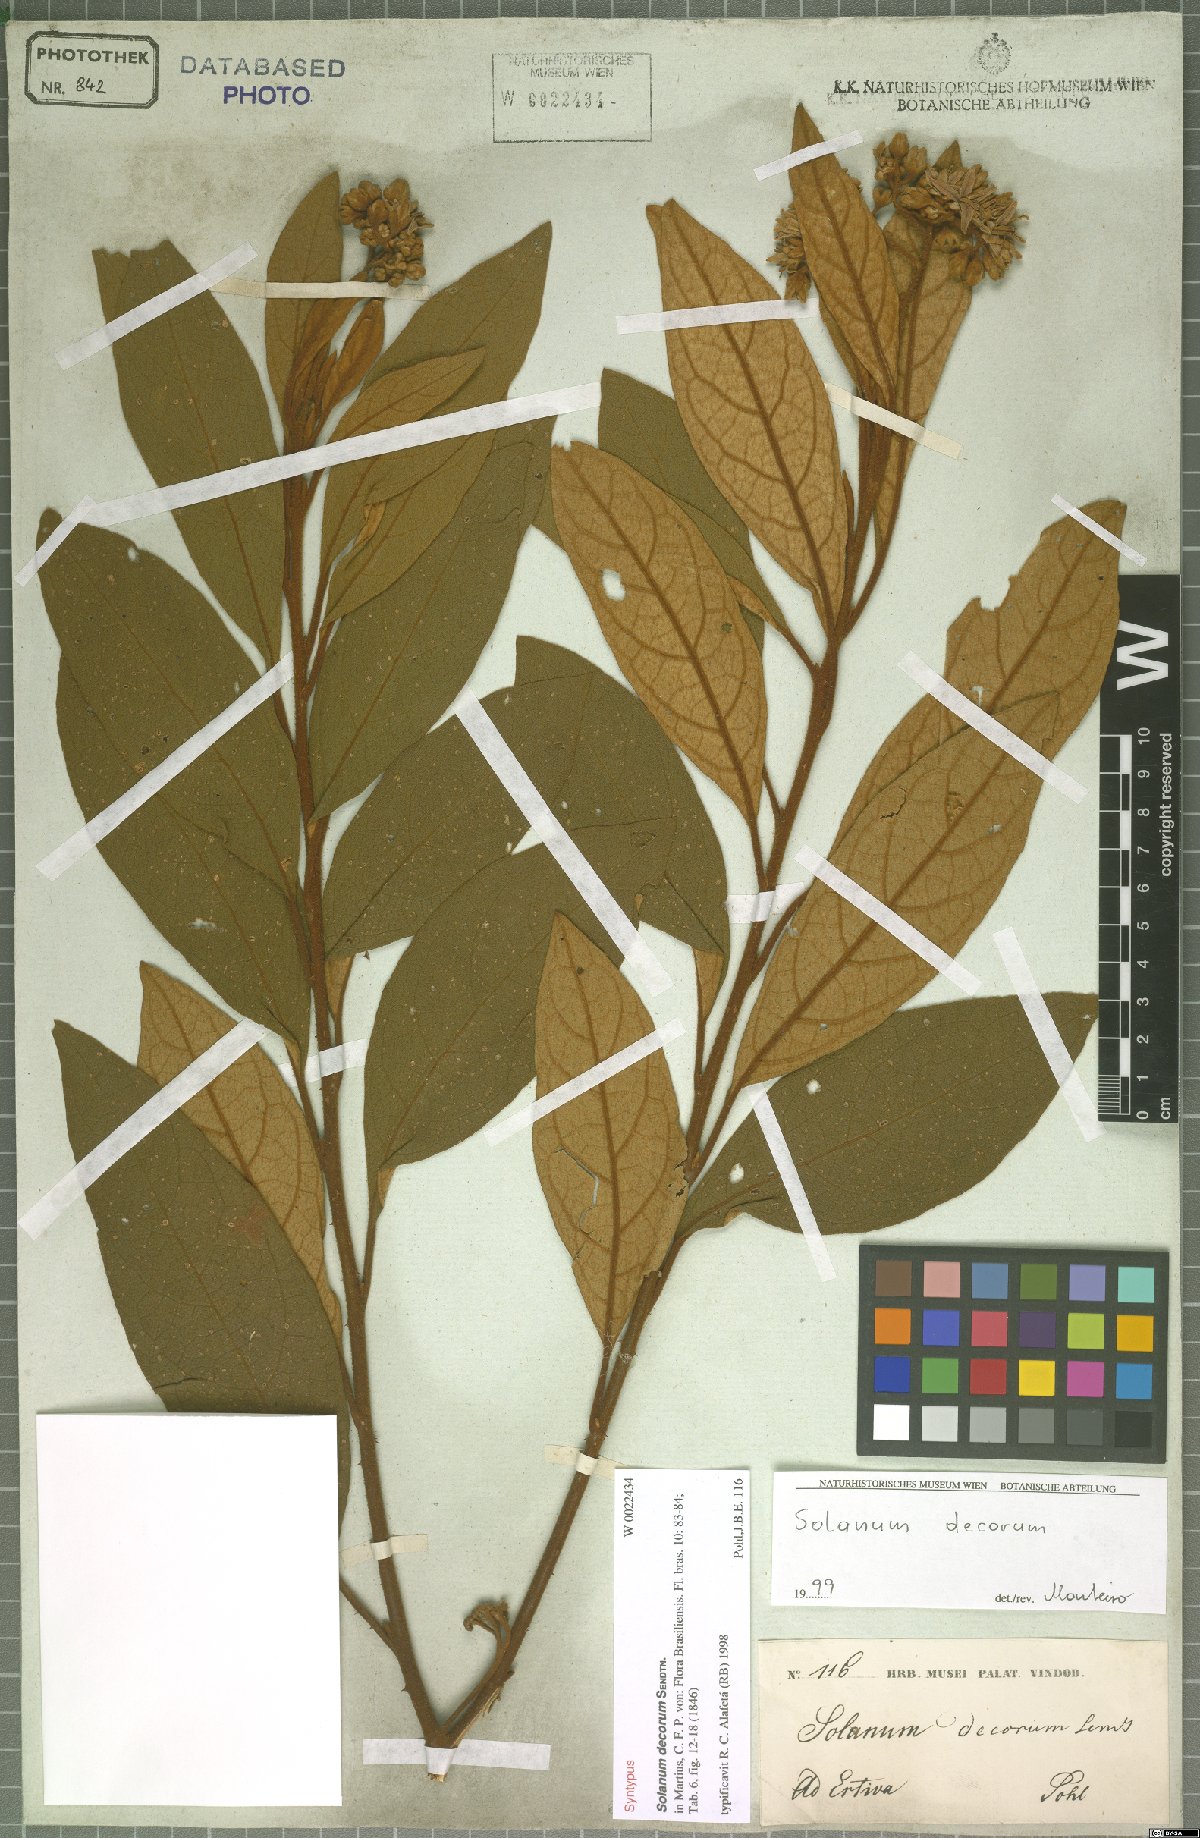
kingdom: Plantae
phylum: Tracheophyta
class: Magnoliopsida
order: Solanales
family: Solanaceae
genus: Solanum
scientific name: Solanum decorum
